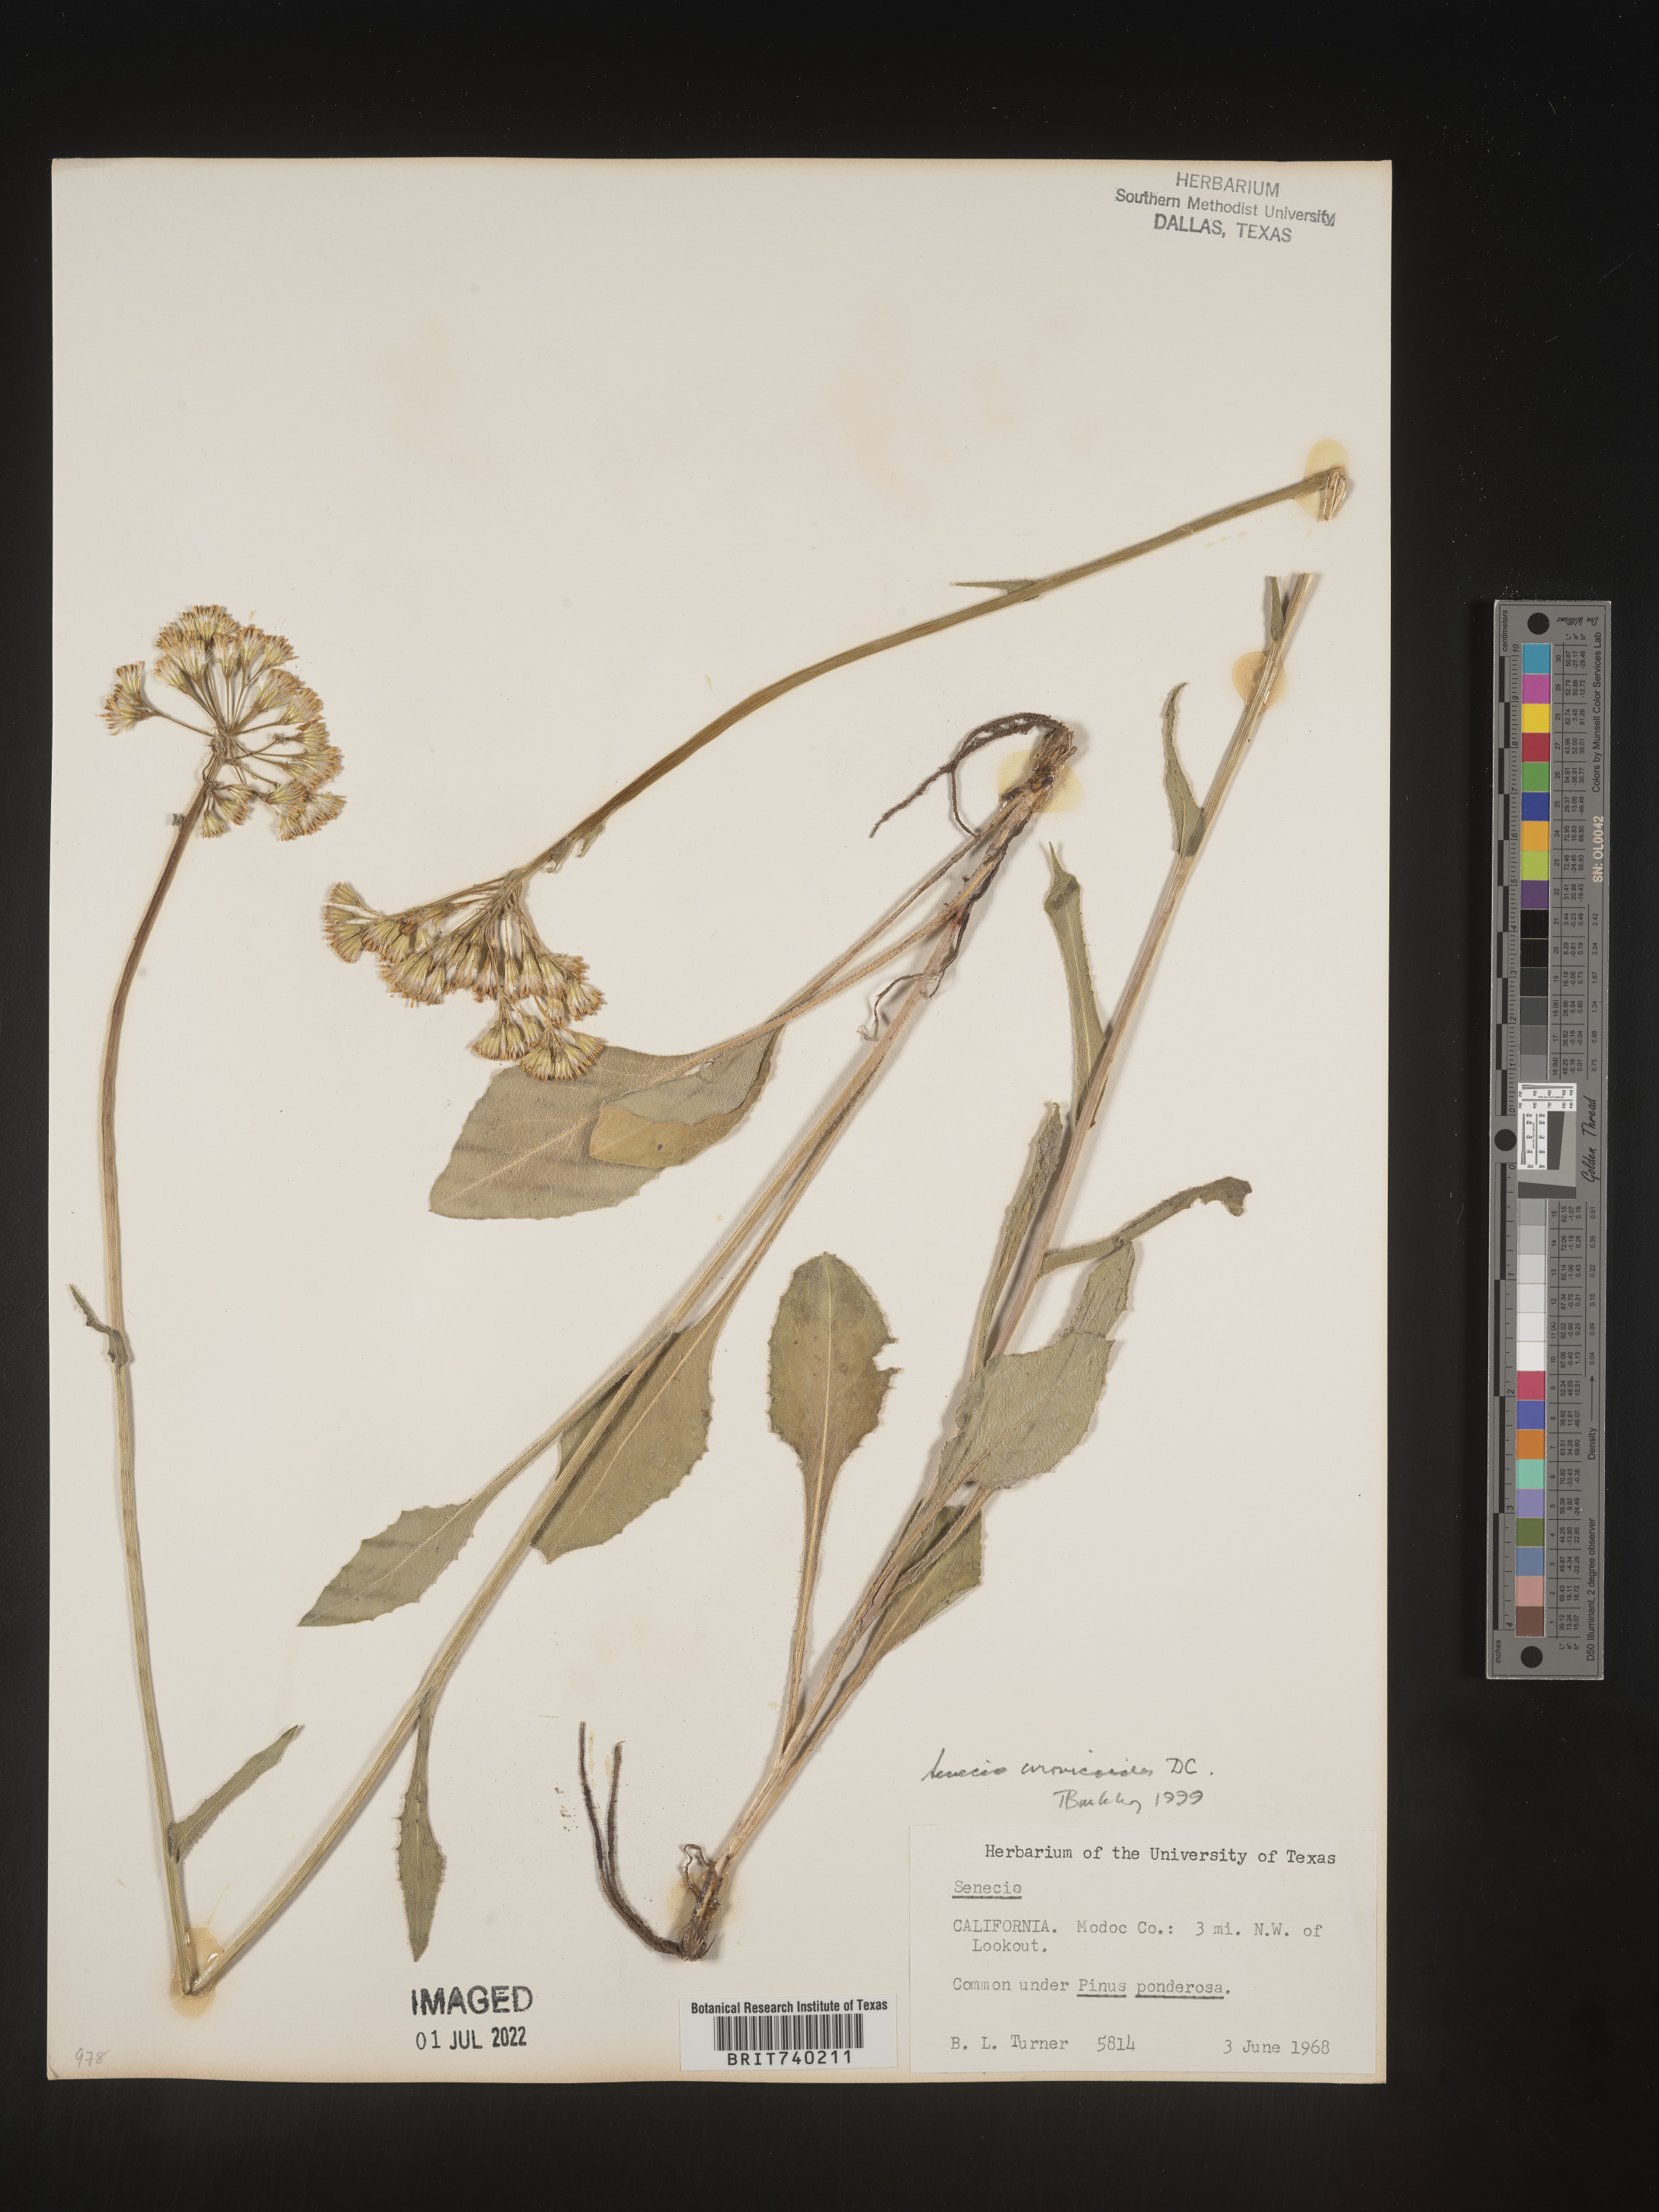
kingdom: Plantae
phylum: Tracheophyta
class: Magnoliopsida
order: Asterales
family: Asteraceae
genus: Senecio
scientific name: Senecio aronicoides
